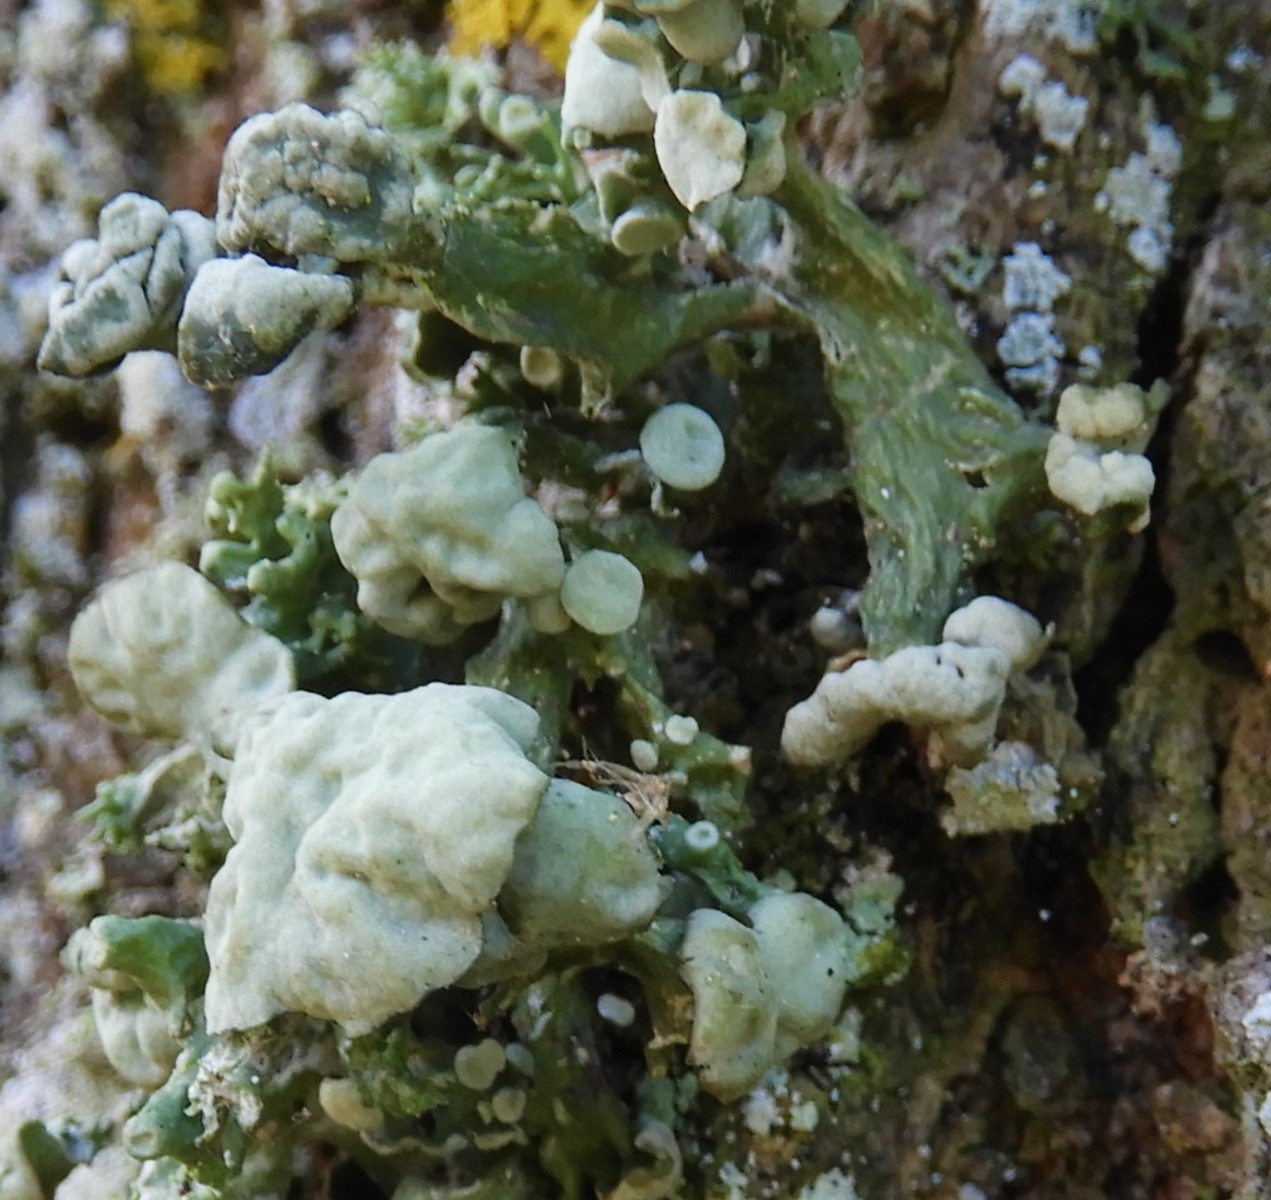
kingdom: Fungi
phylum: Ascomycota
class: Lecanoromycetes
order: Lecanorales
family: Ramalinaceae
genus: Ramalina
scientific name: Ramalina fastigiata
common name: tue-grenlav
